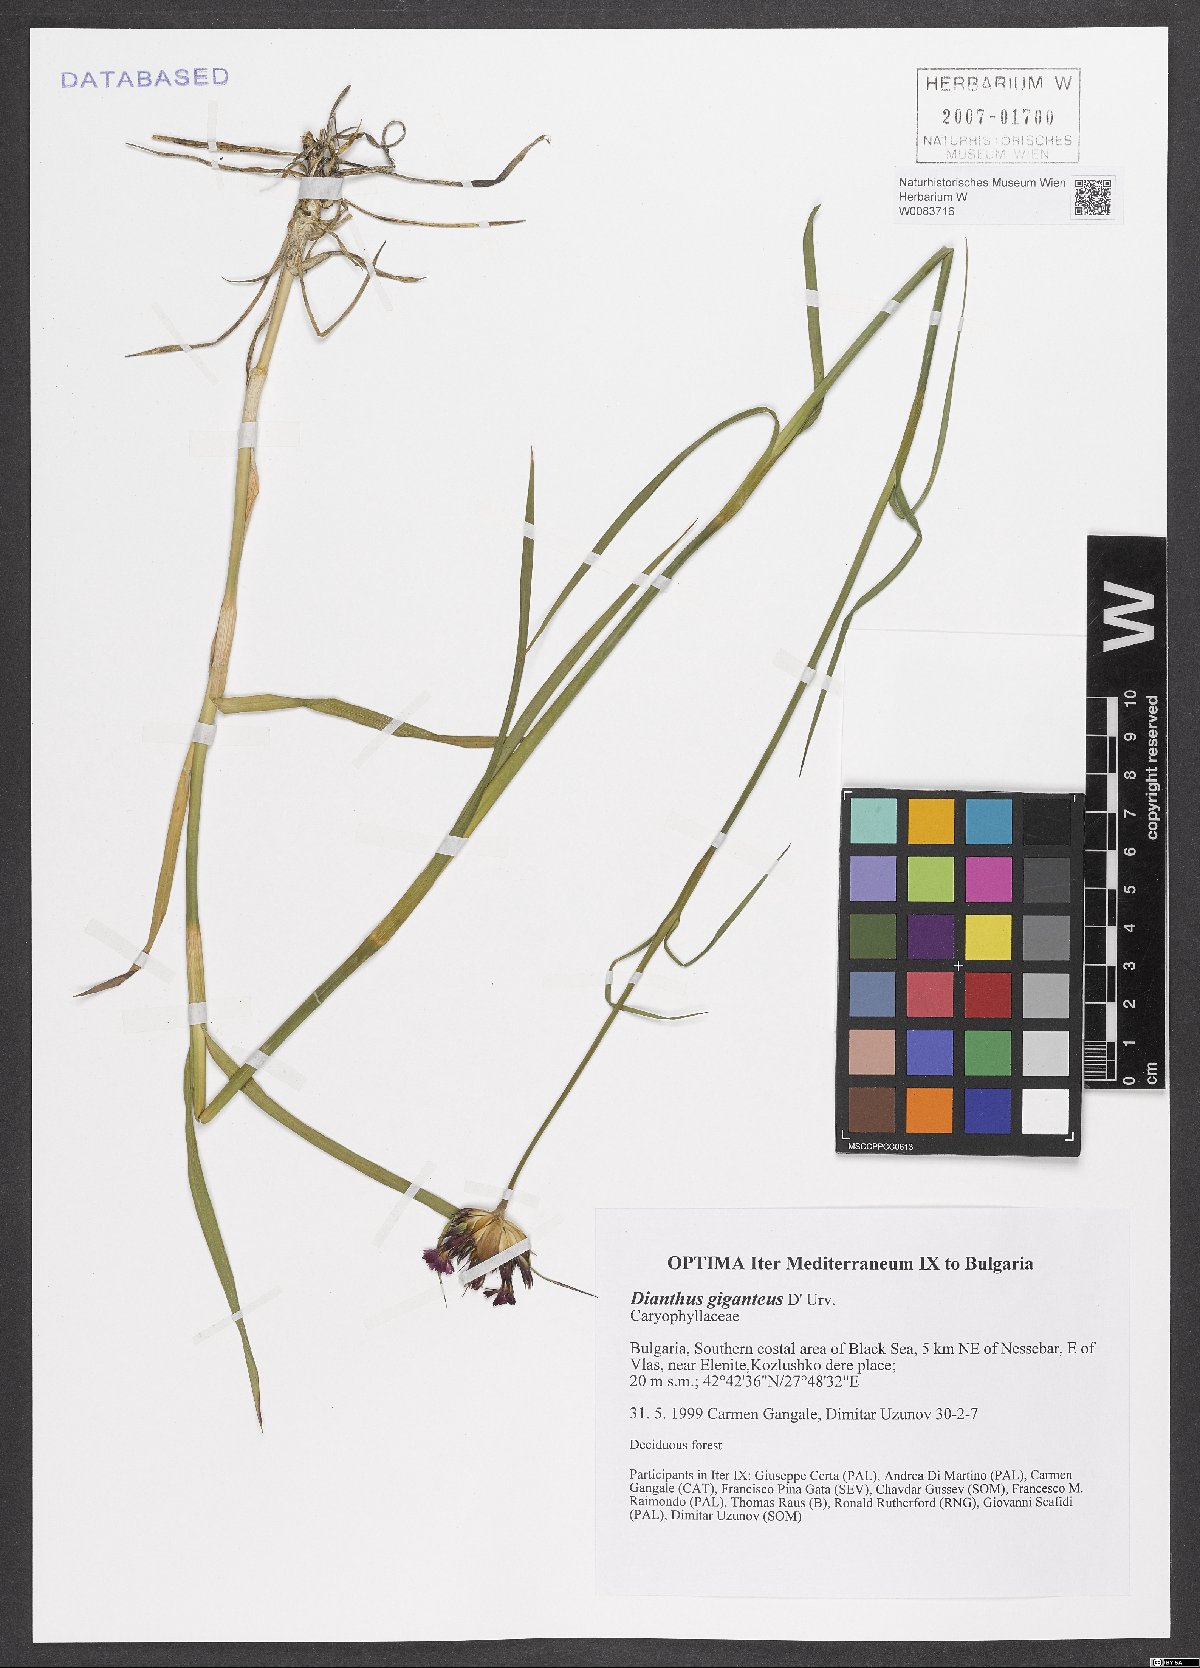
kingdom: Plantae
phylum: Tracheophyta
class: Magnoliopsida
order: Caryophyllales
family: Caryophyllaceae
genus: Dianthus
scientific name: Dianthus giganteus
